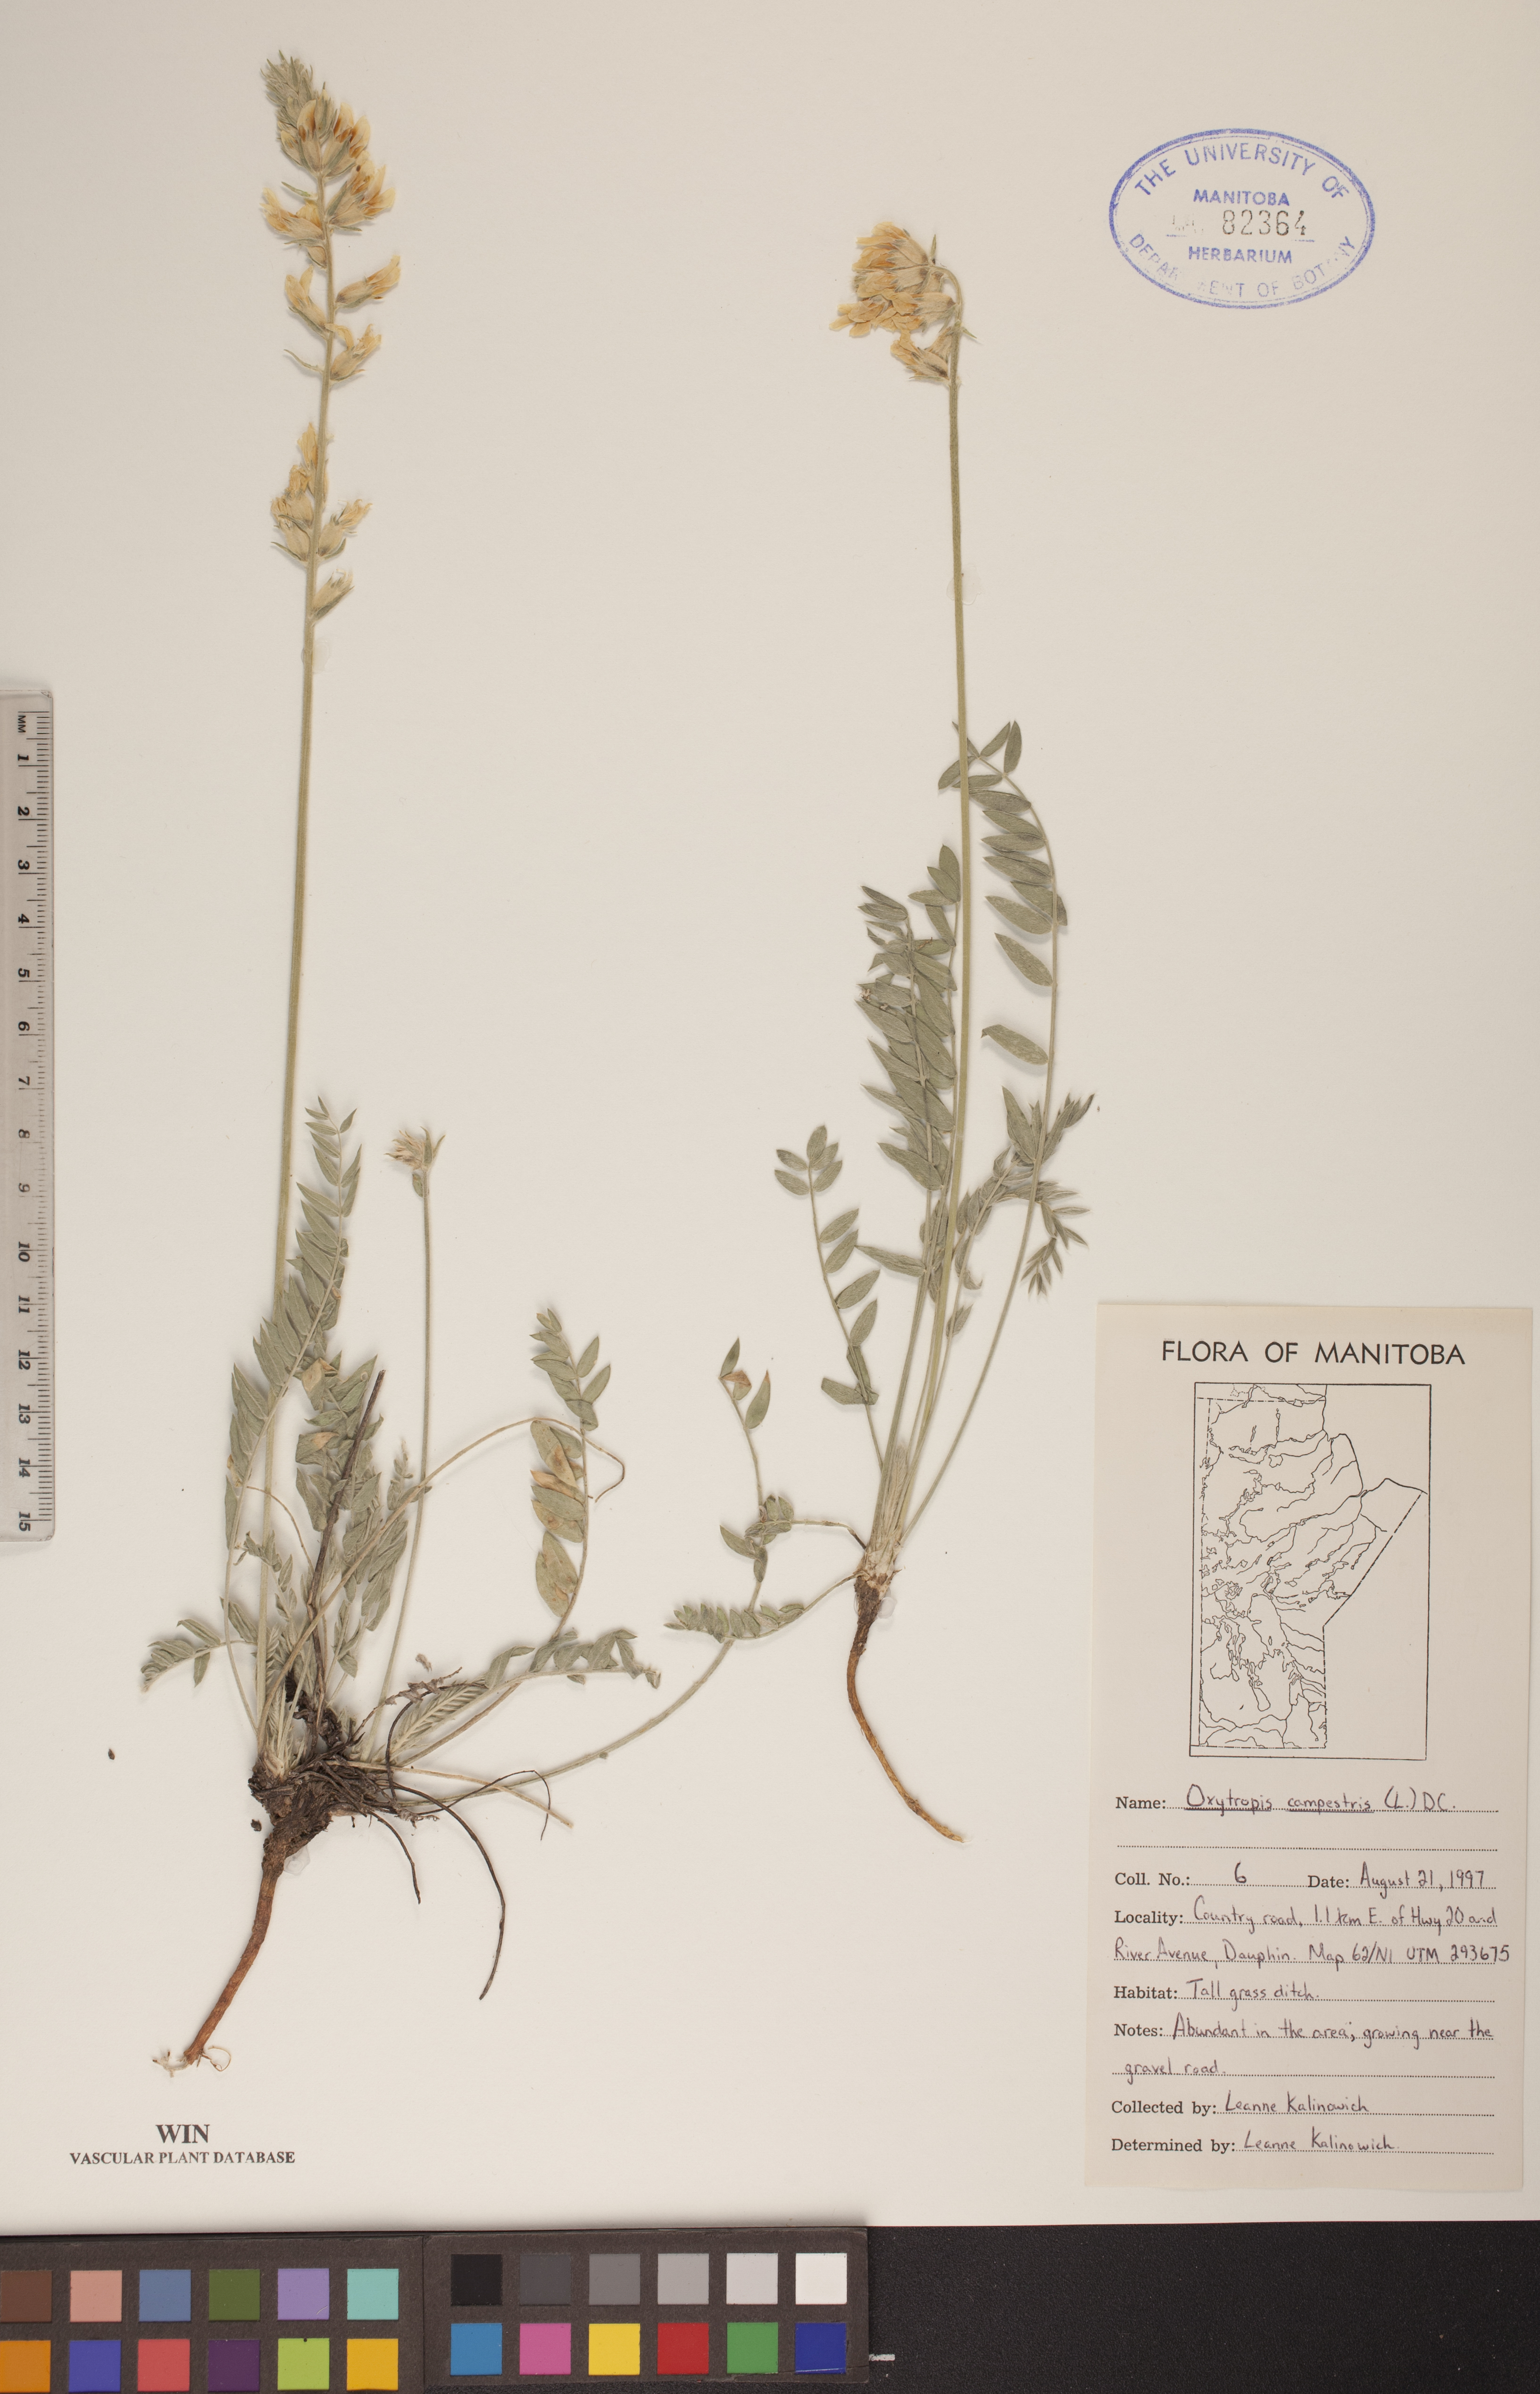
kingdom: Plantae
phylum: Tracheophyta
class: Magnoliopsida
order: Fabales
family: Fabaceae
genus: Oxytropis
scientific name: Oxytropis campestris
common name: Field locoweed
